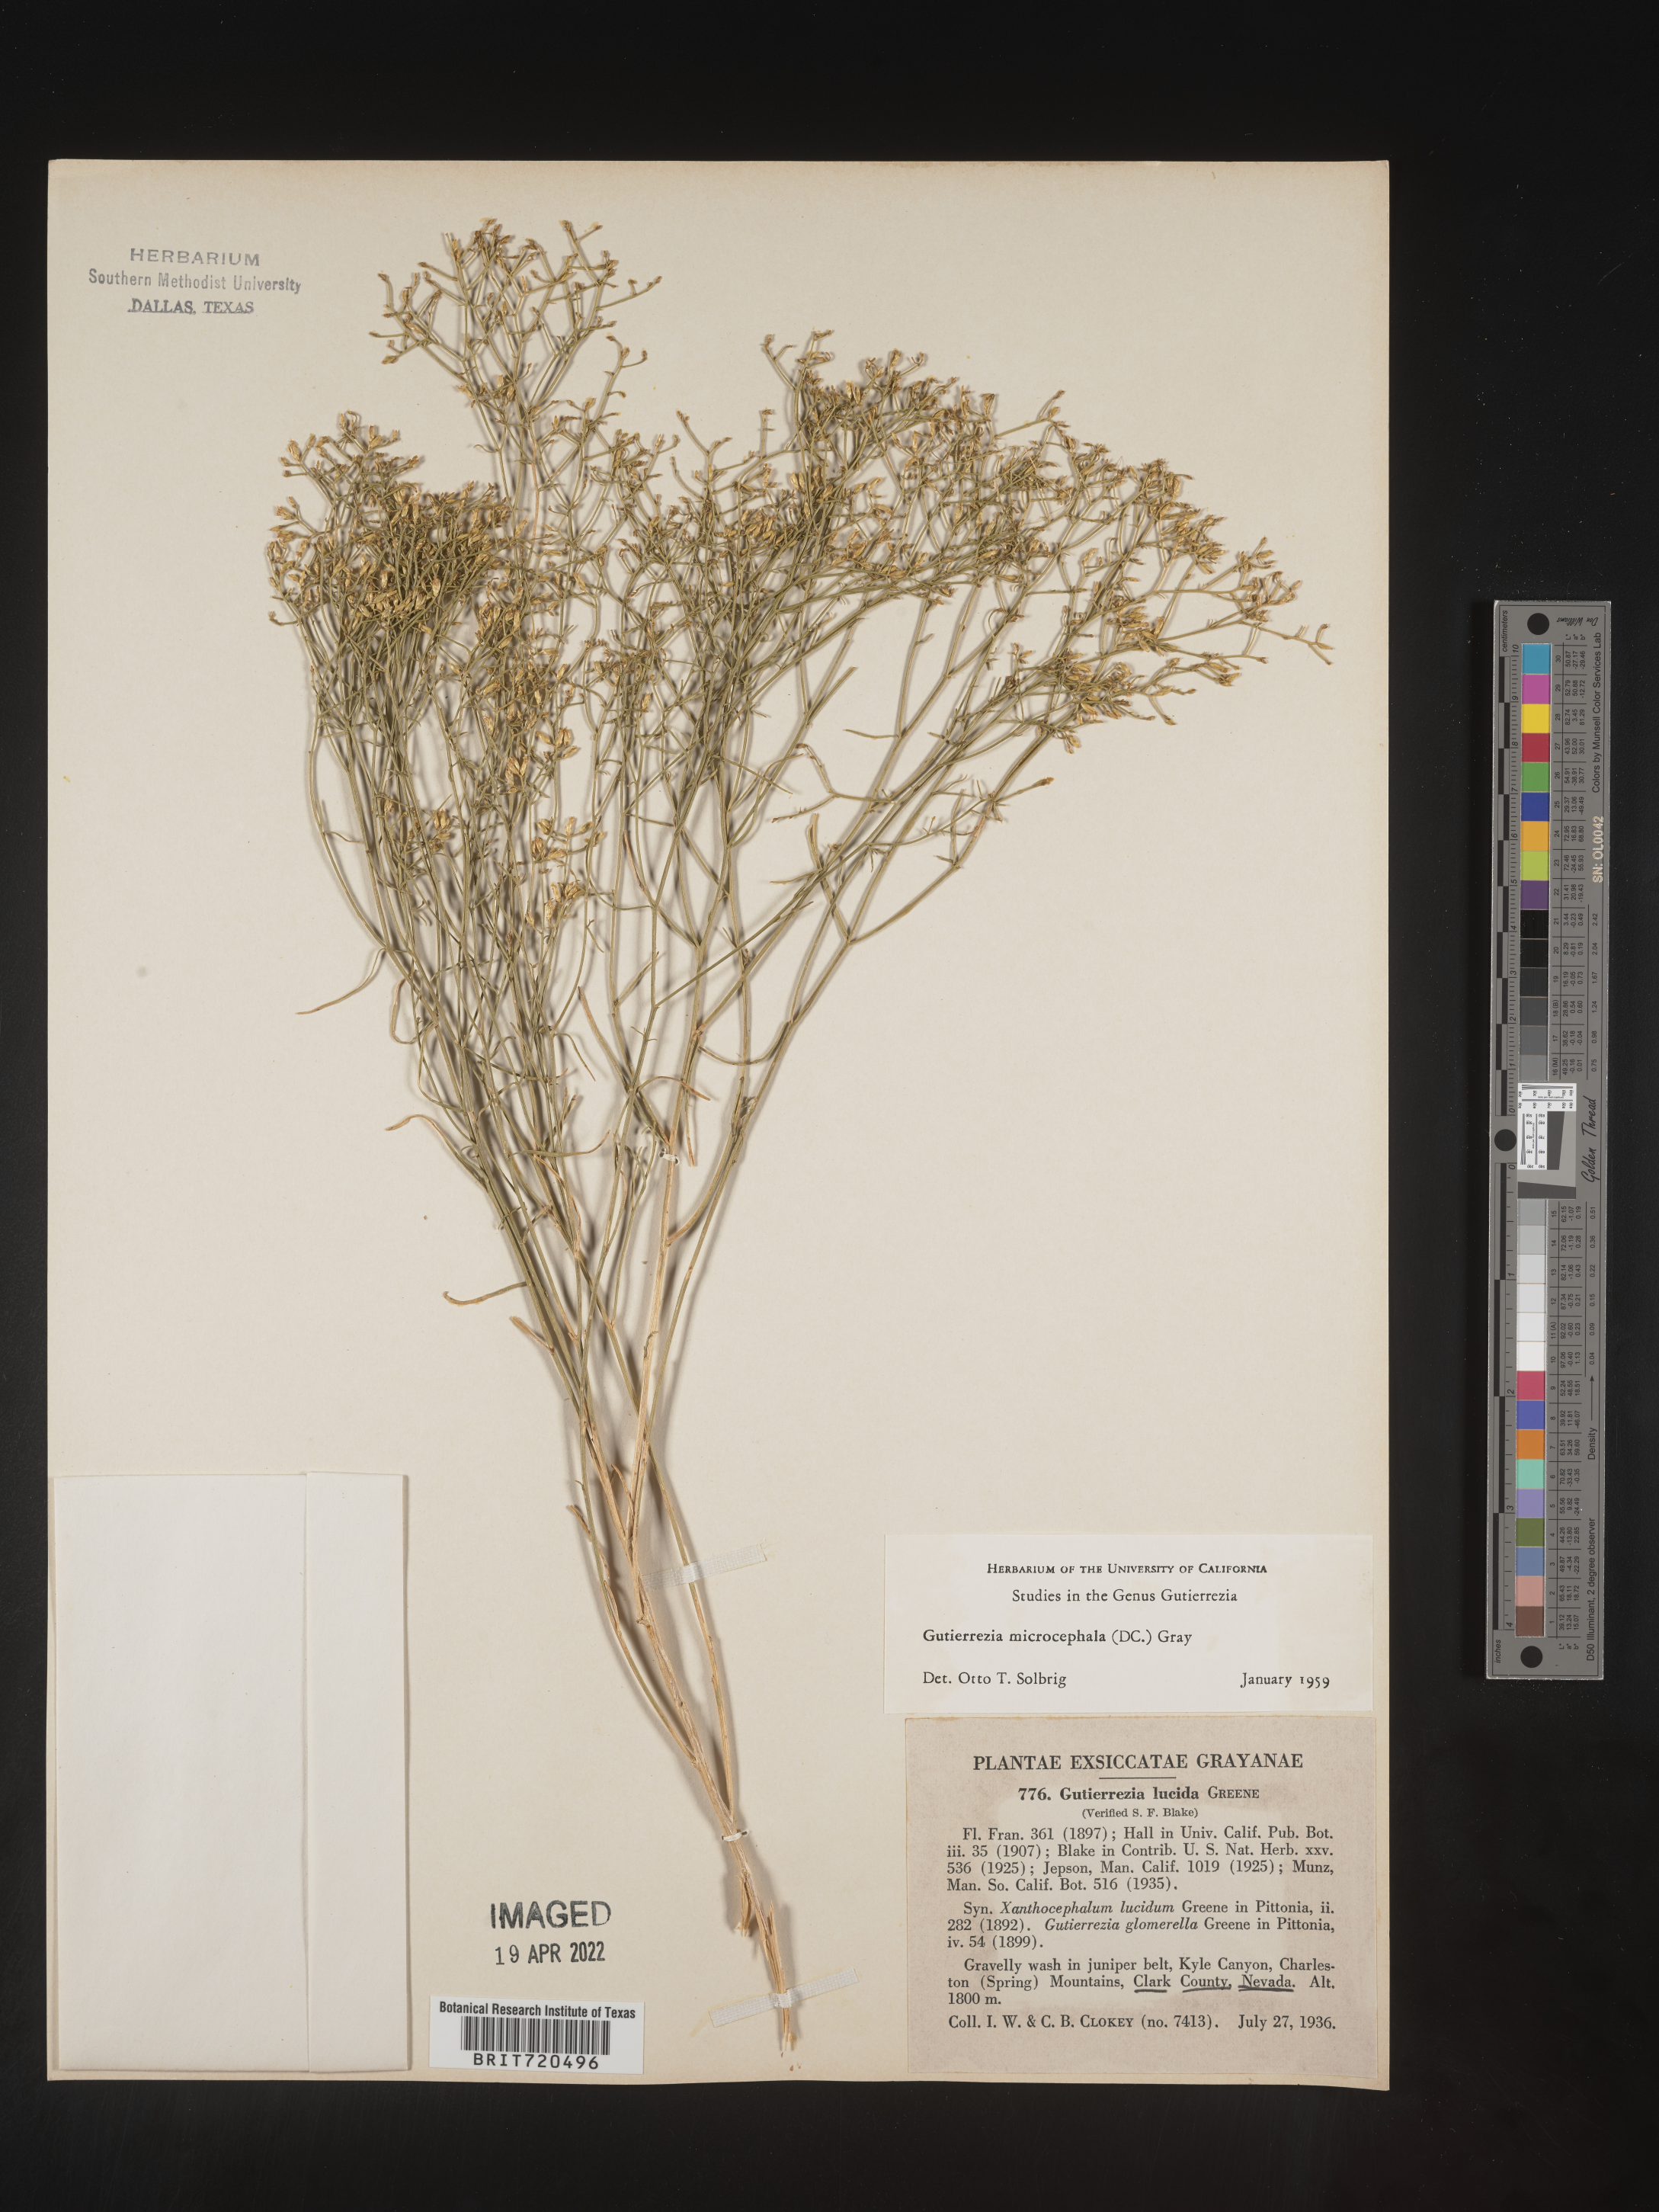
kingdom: Plantae
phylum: Tracheophyta
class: Magnoliopsida
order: Asterales
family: Asteraceae
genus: Gutierrezia
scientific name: Gutierrezia microcephala
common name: Thread snakeweed
